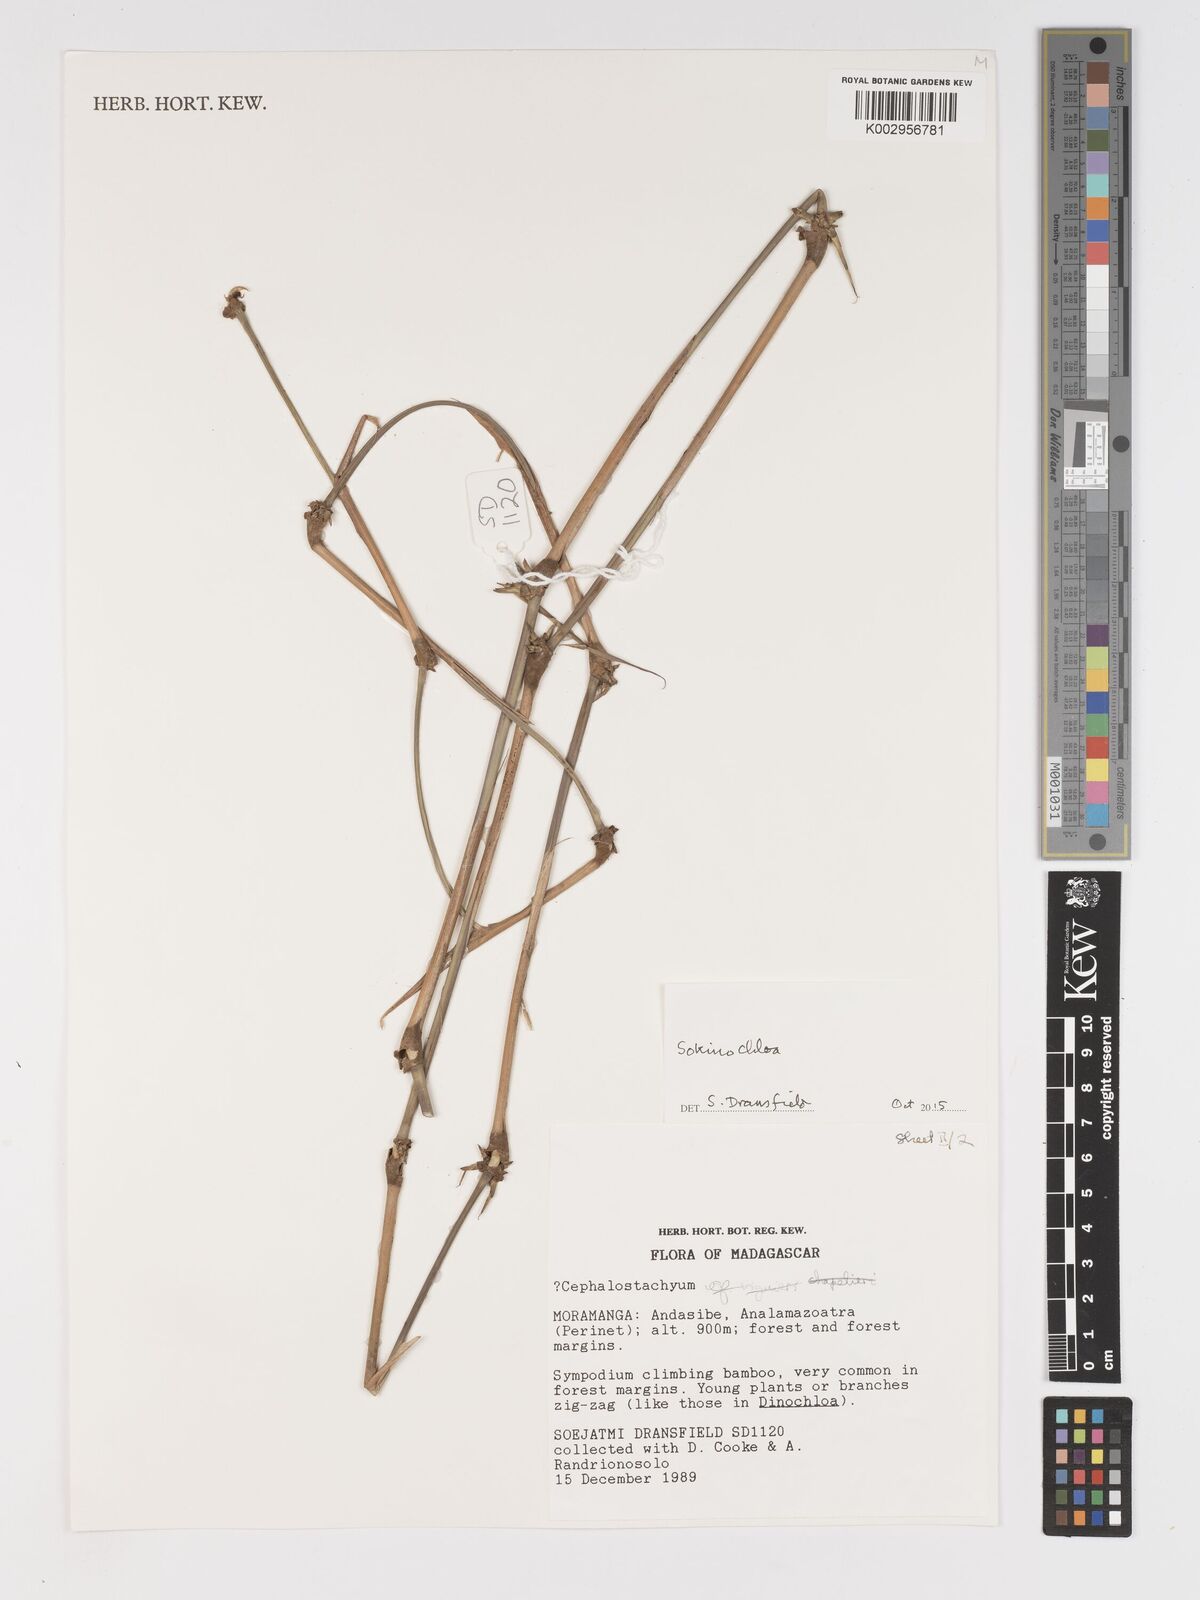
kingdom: Plantae
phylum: Tracheophyta
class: Liliopsida
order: Poales
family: Poaceae
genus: Sokinochloa
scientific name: Sokinochloa
